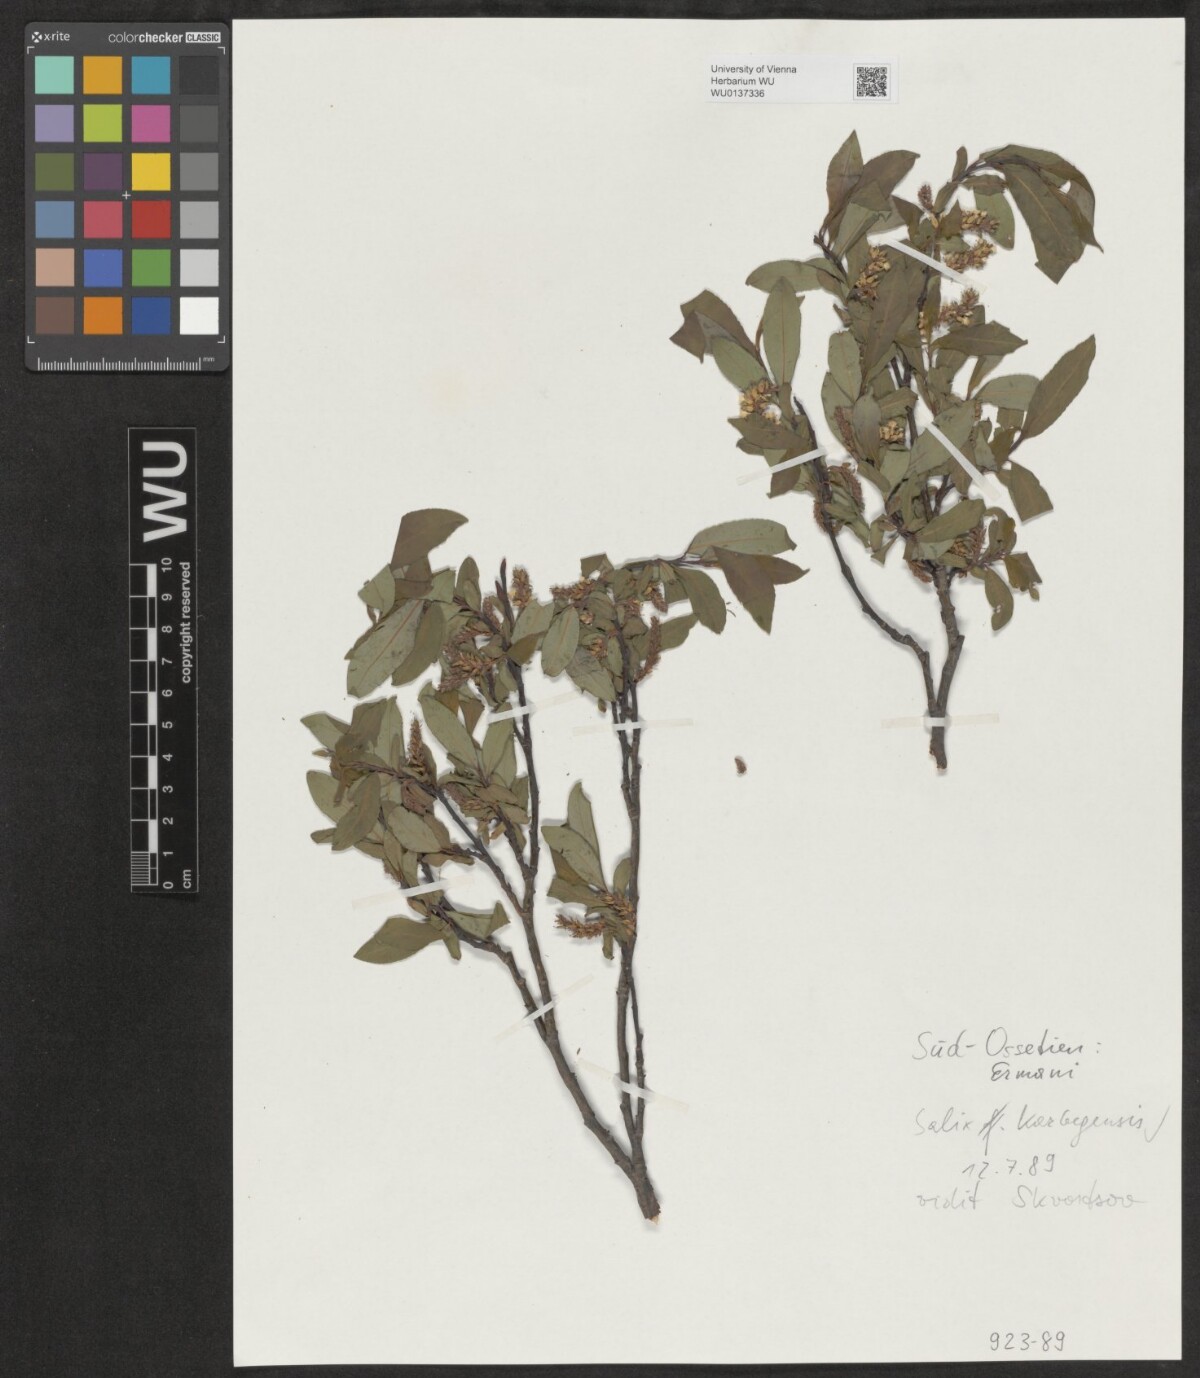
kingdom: Plantae
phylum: Tracheophyta
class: Magnoliopsida
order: Malpighiales
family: Salicaceae
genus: Salix
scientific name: Salix glauca
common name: Glaucous willow
